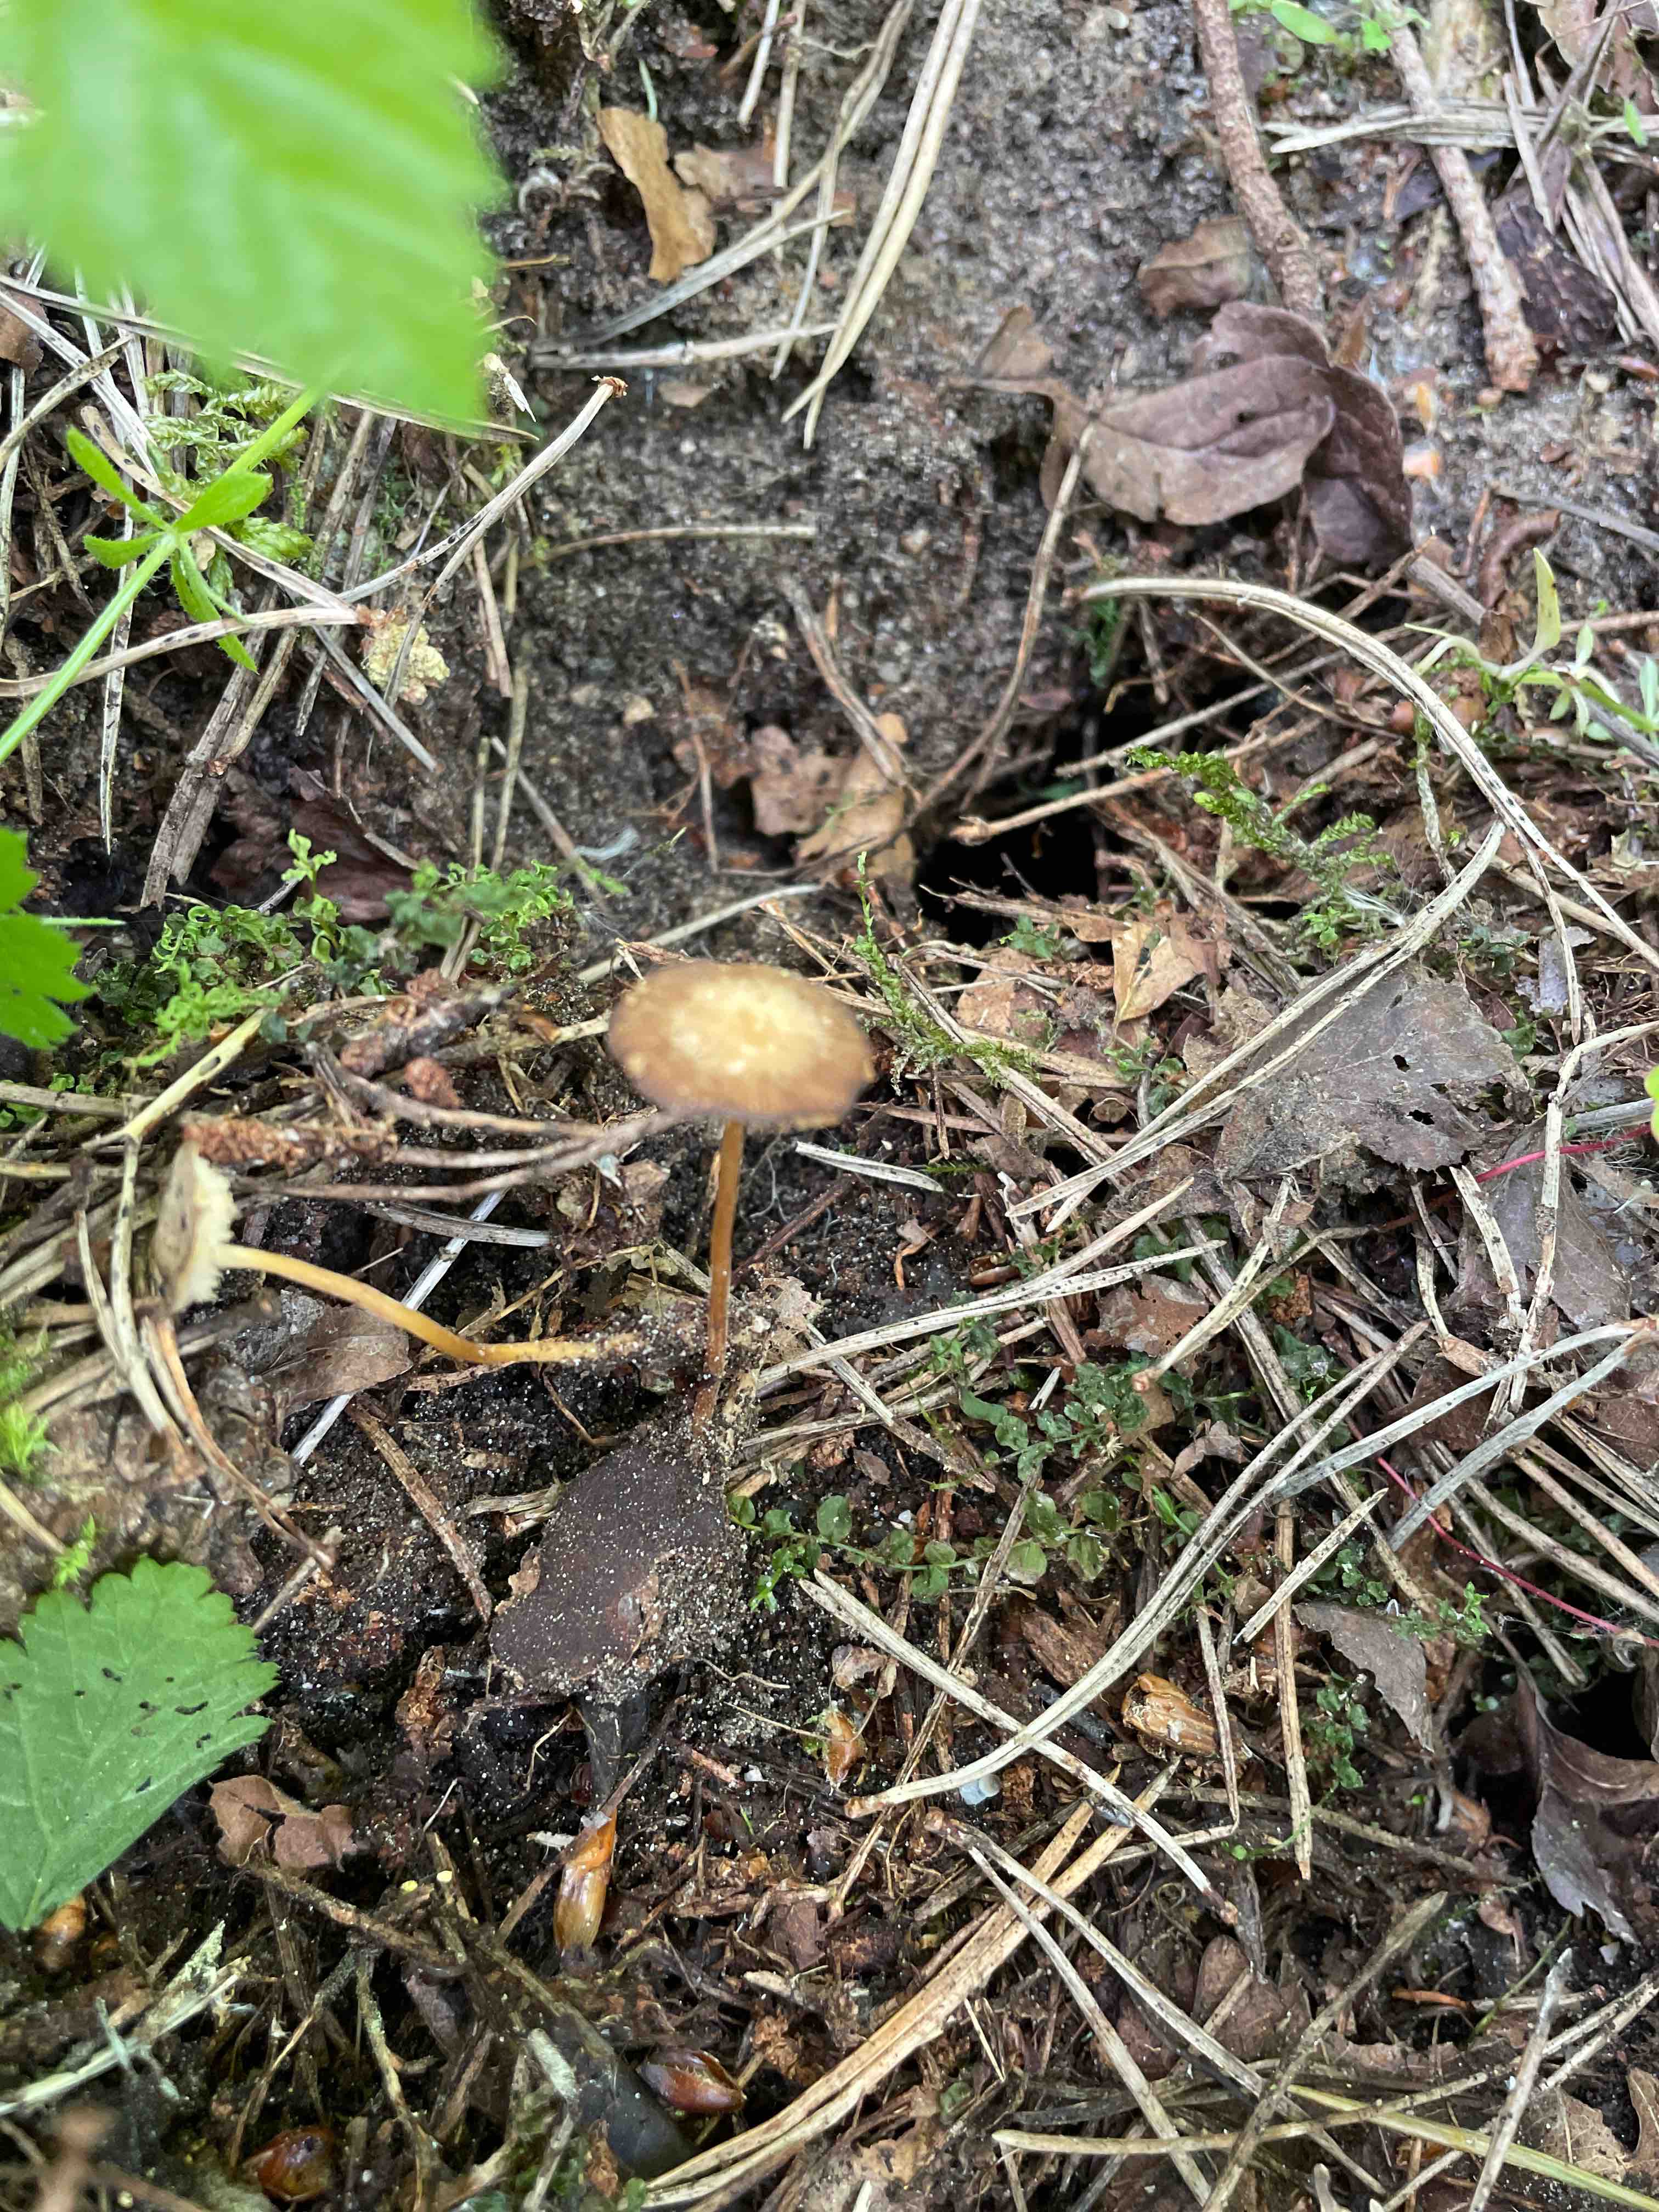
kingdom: Fungi
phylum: Basidiomycota
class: Agaricomycetes
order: Agaricales
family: Physalacriaceae
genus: Strobilurus
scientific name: Strobilurus
